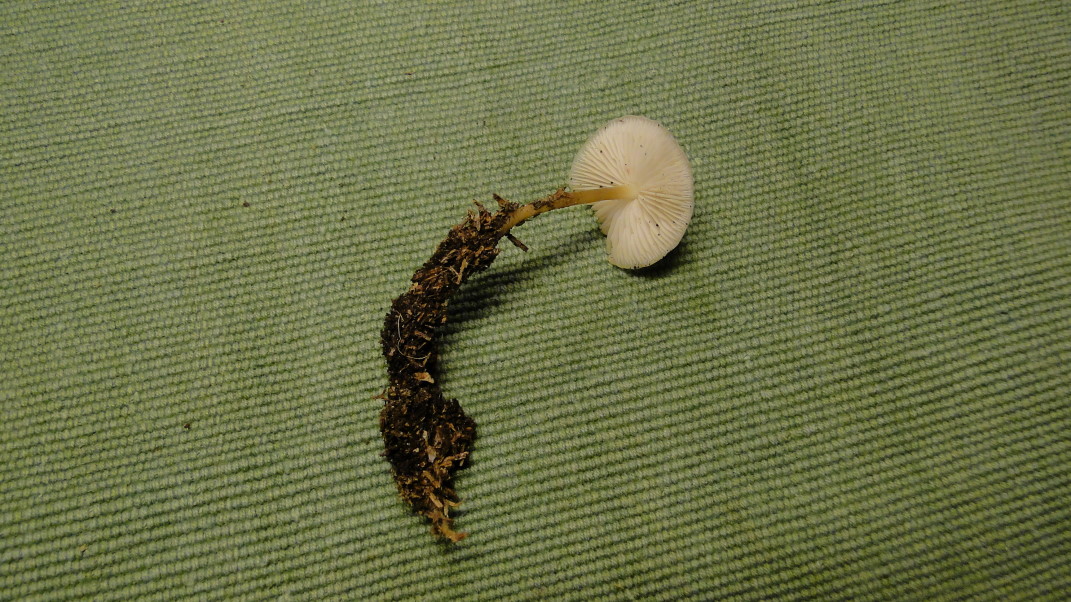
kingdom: Fungi
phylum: Basidiomycota
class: Agaricomycetes
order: Agaricales
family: Physalacriaceae
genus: Strobilurus
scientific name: Strobilurus esculentus
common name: gran-koglehat
